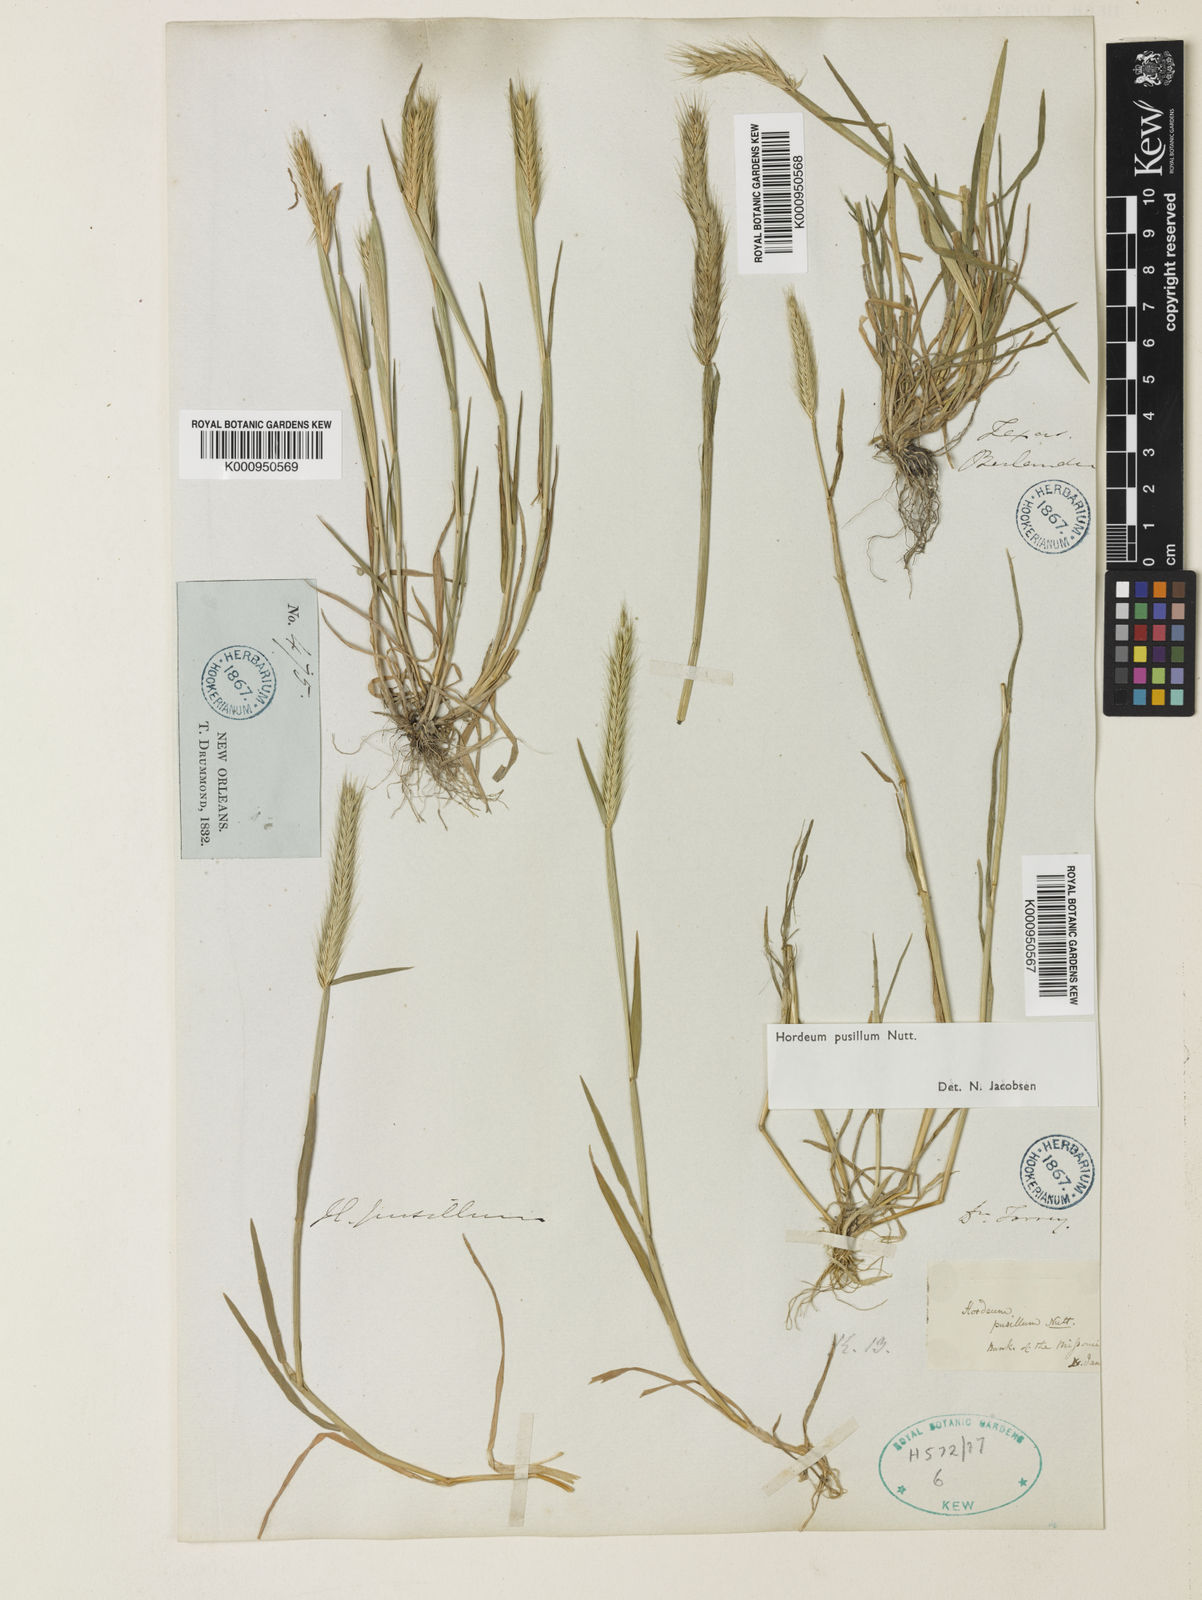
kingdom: Plantae
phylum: Tracheophyta
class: Liliopsida
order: Poales
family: Poaceae
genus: Hordeum
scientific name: Hordeum pusillum
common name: Little barley
